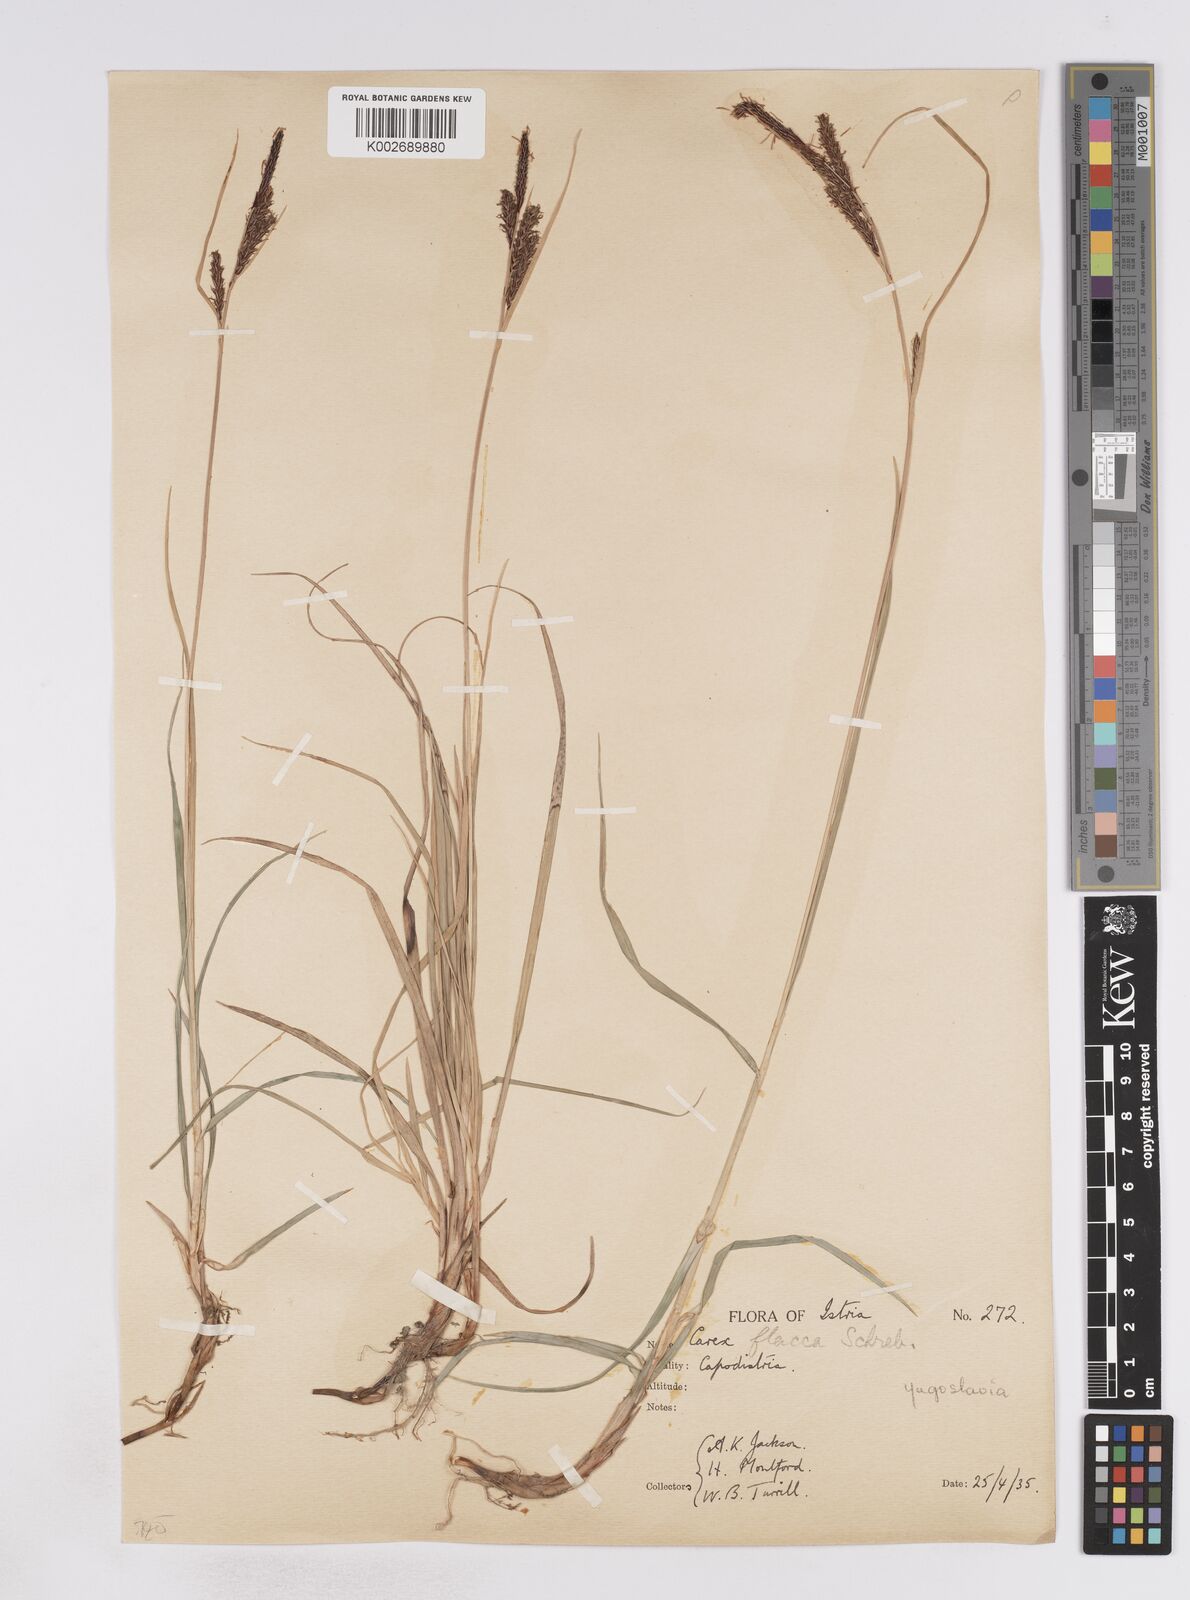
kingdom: Plantae
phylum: Tracheophyta
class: Liliopsida
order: Poales
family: Cyperaceae
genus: Carex
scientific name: Carex flacca
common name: Glaucous sedge
